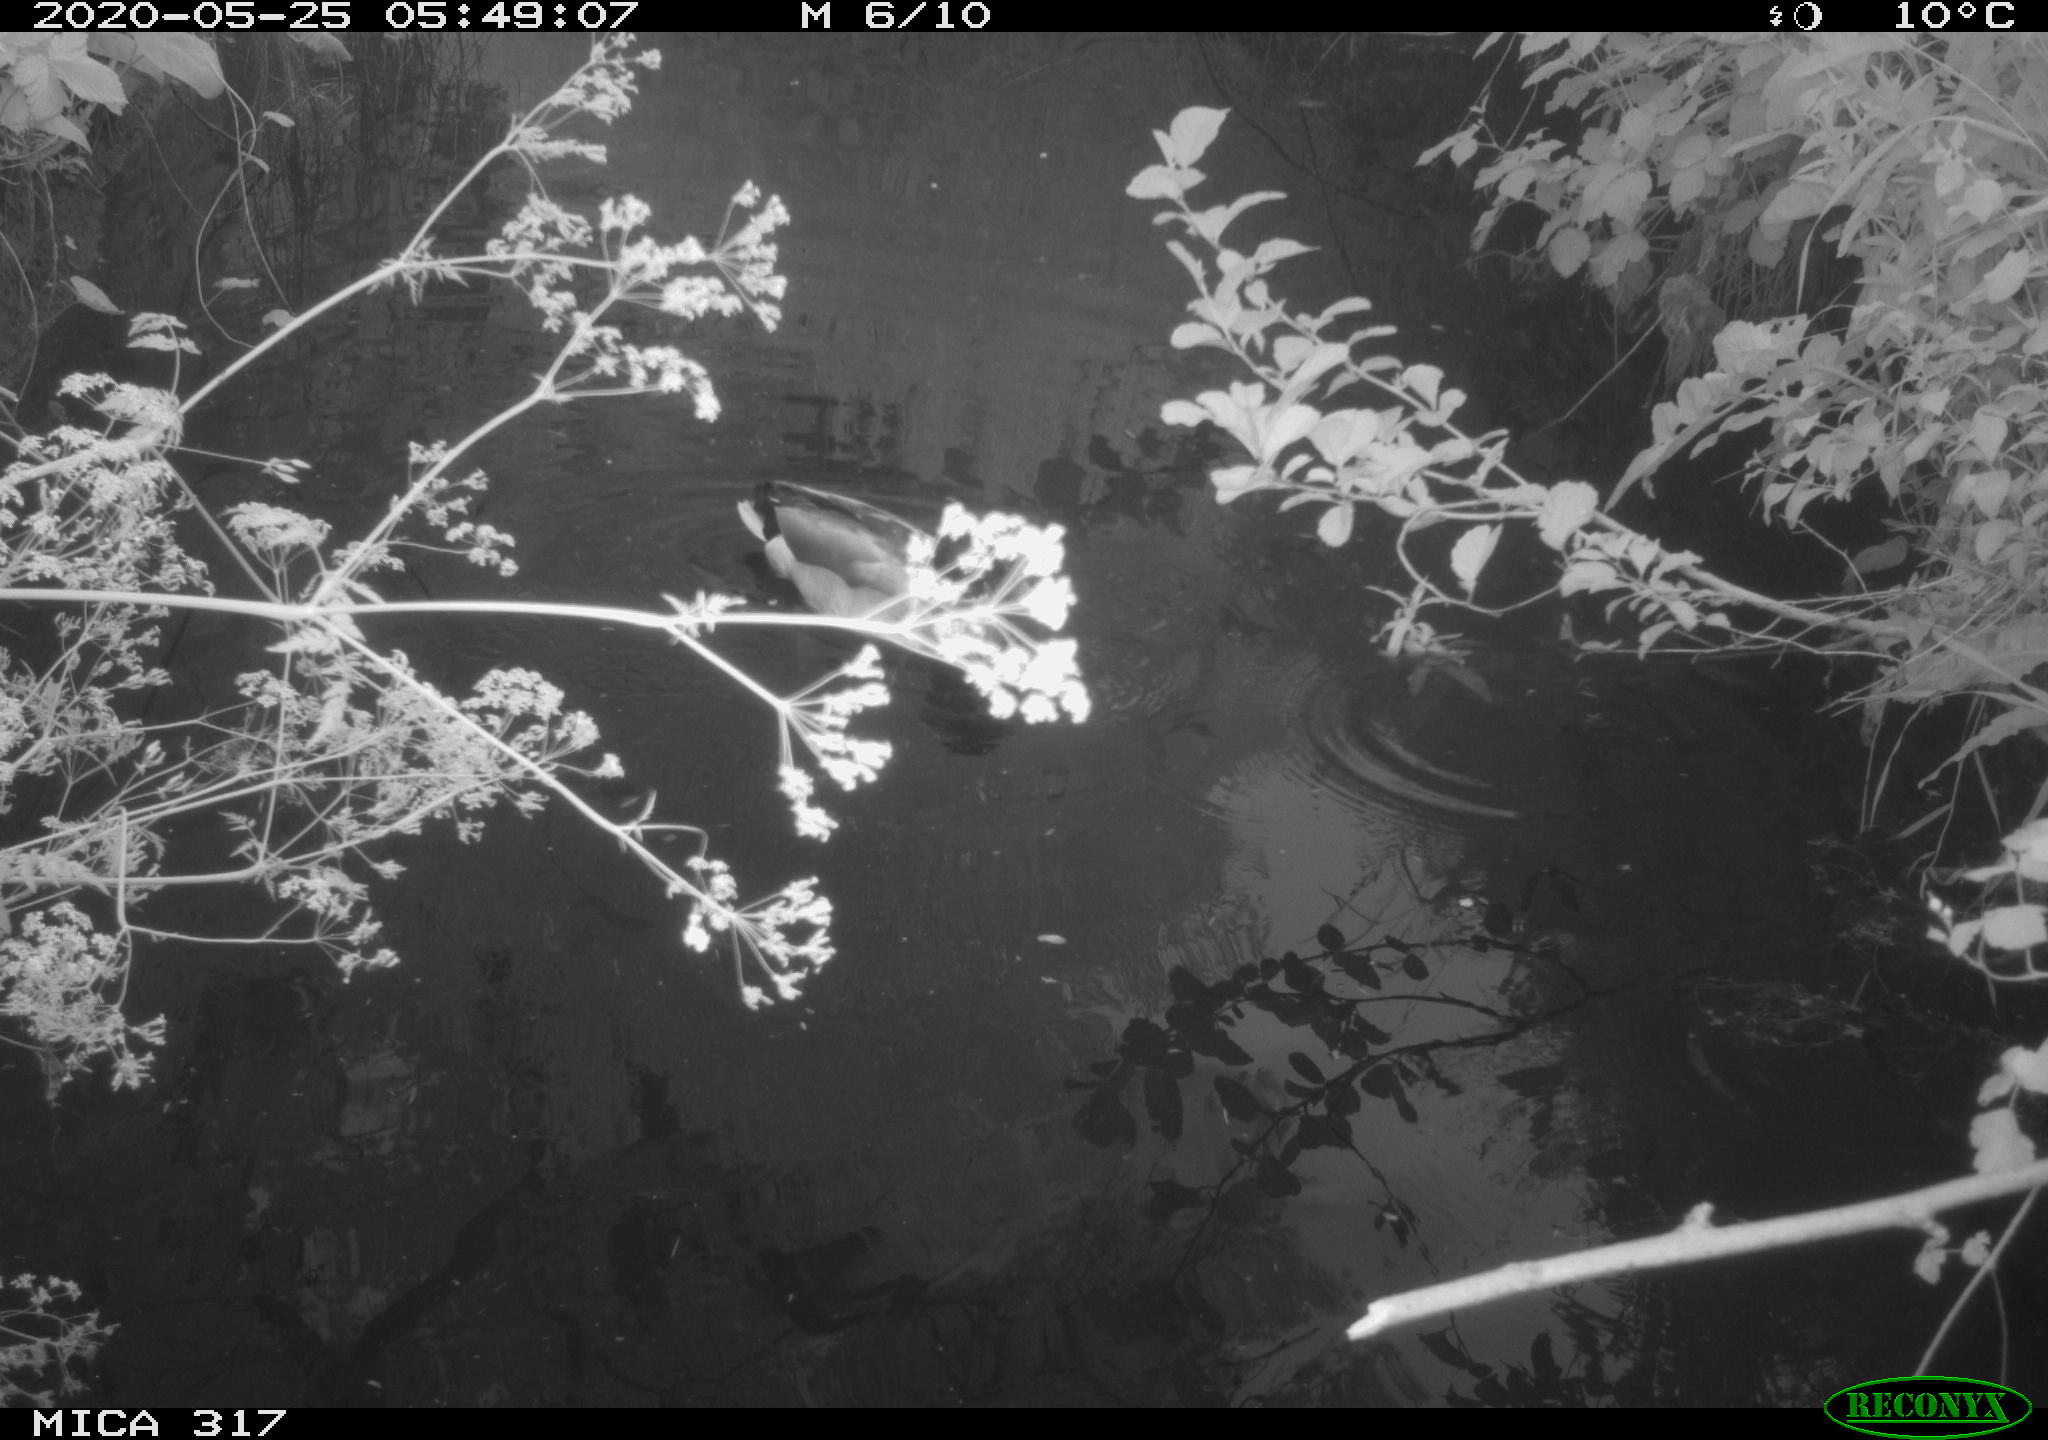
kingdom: Animalia
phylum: Chordata
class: Aves
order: Anseriformes
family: Anatidae
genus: Anas
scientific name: Anas platyrhynchos
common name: Mallard
